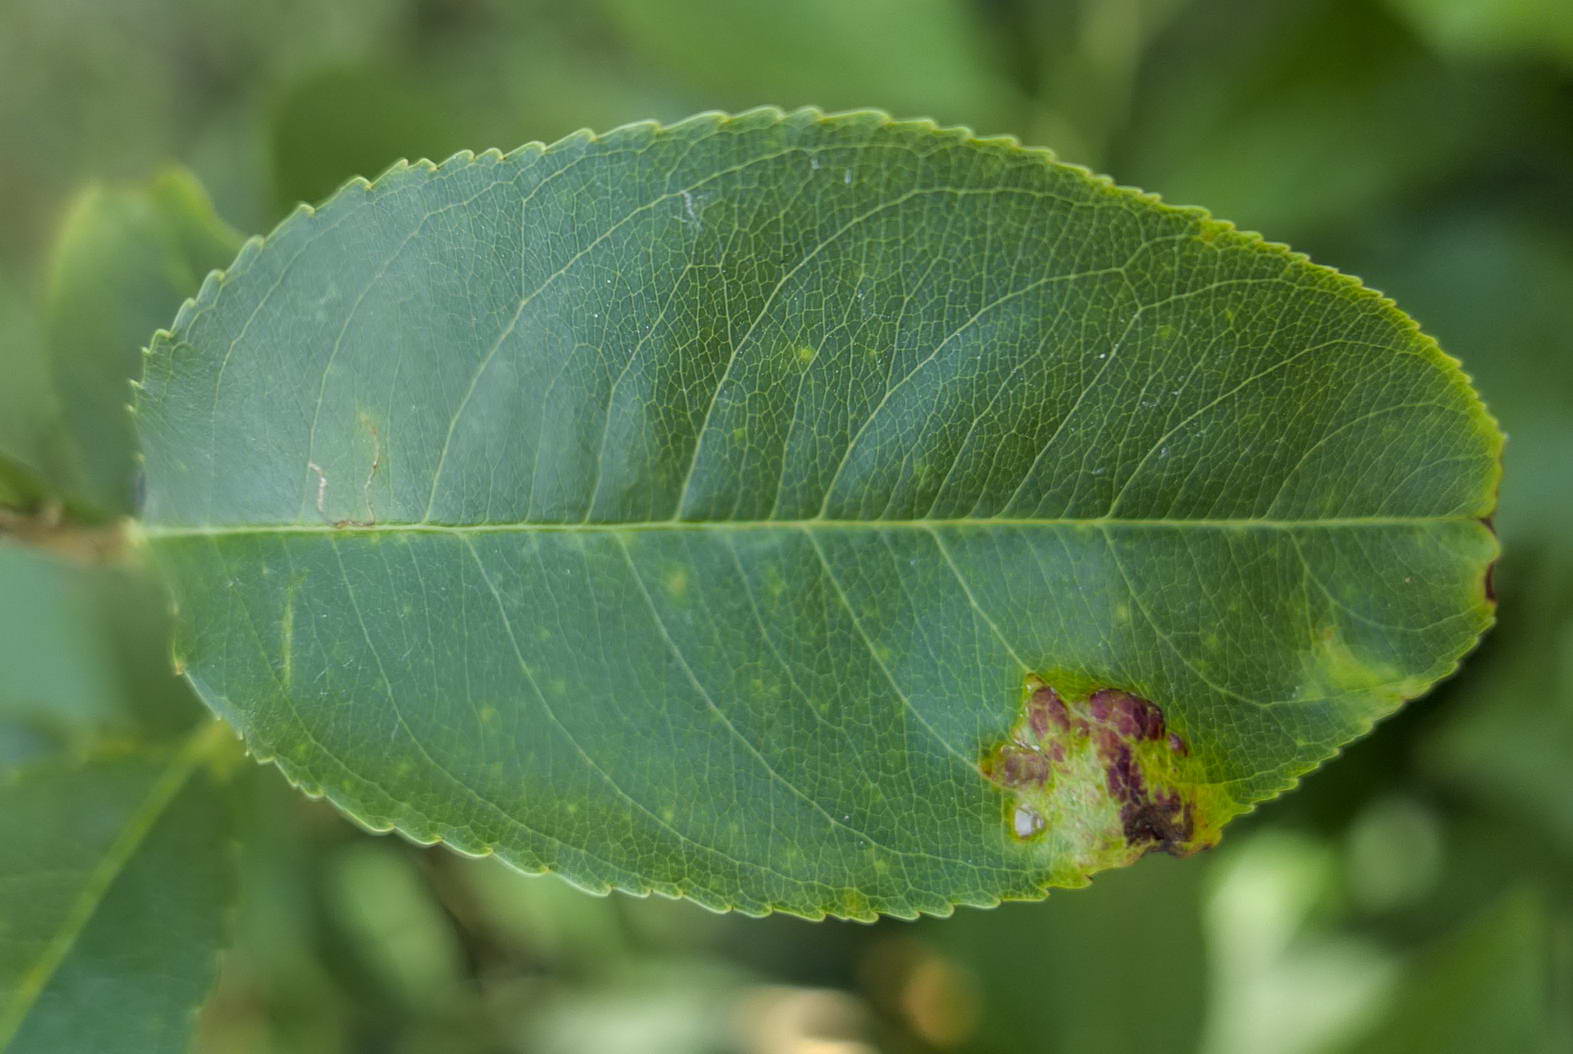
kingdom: Fungi
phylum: Ascomycota
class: Taphrinomycetes
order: Taphrinales
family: Taphrinaceae
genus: Taphrina
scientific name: Taphrina farlowii
